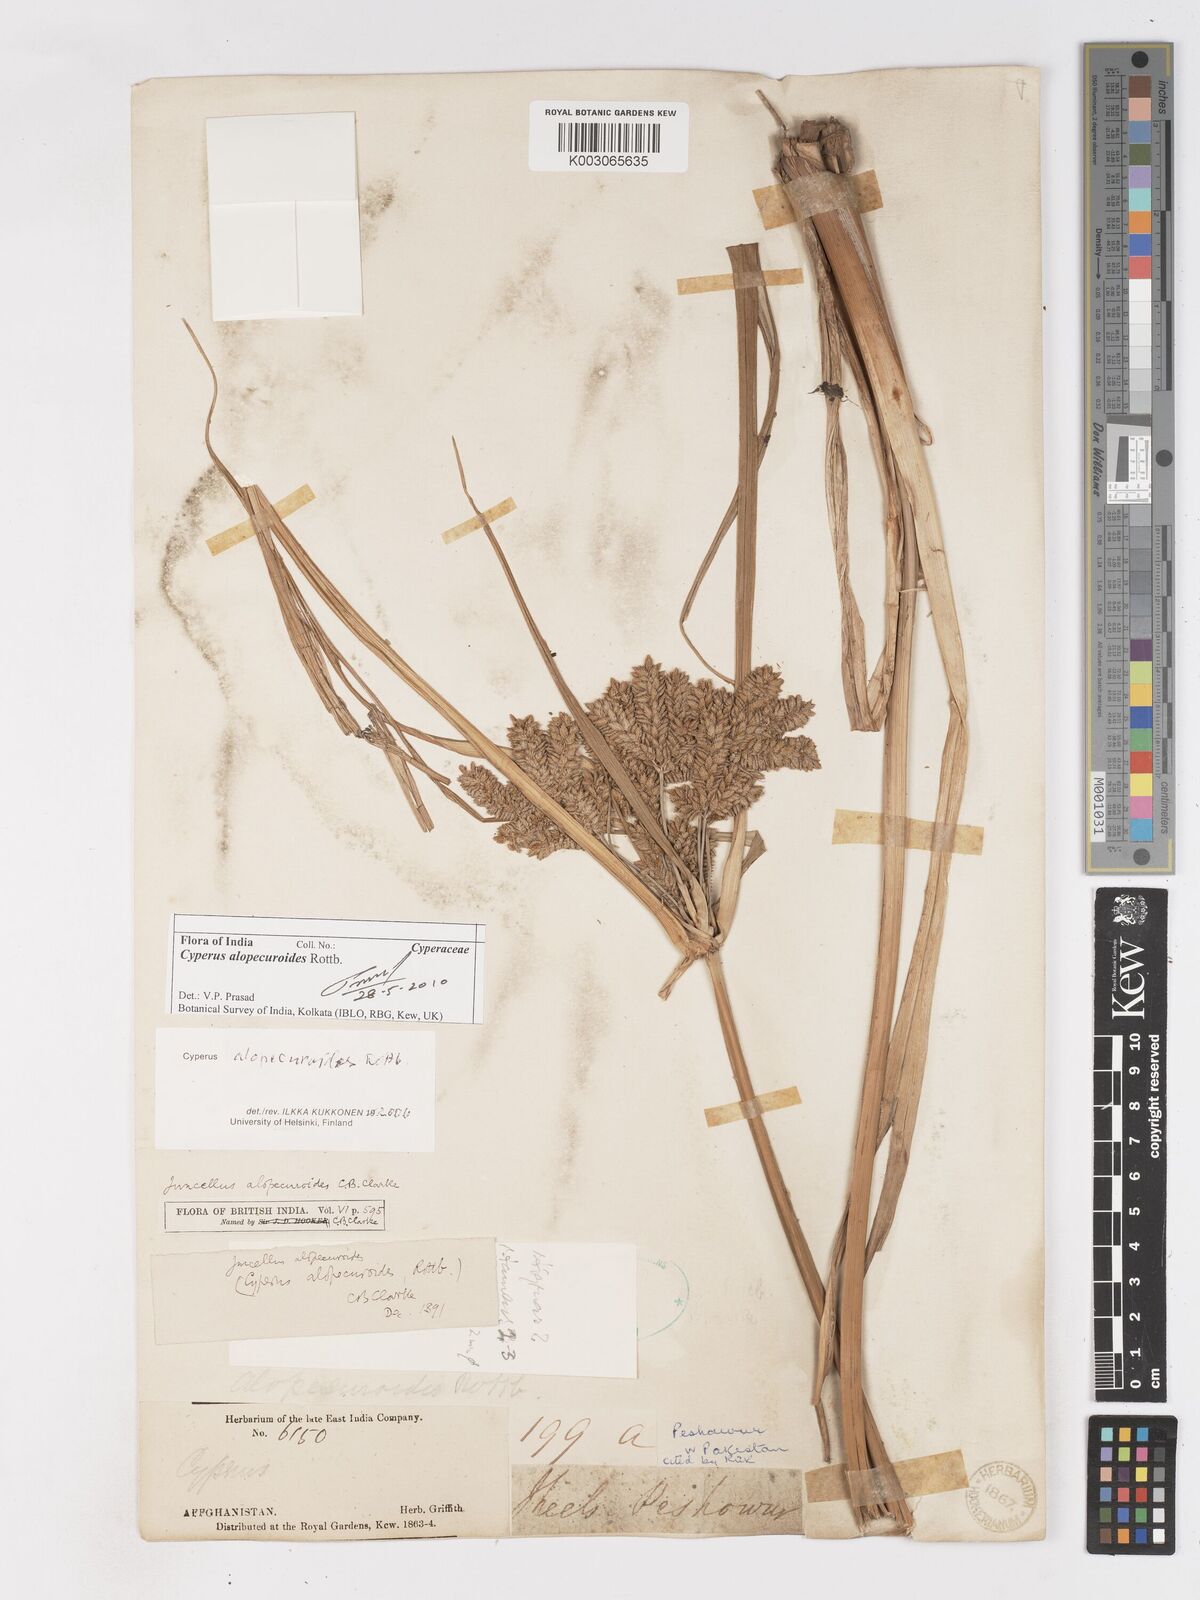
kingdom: Plantae
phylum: Tracheophyta
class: Liliopsida
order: Poales
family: Cyperaceae
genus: Cyperus
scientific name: Cyperus alopecuroides
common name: Foxtail flatsedge
